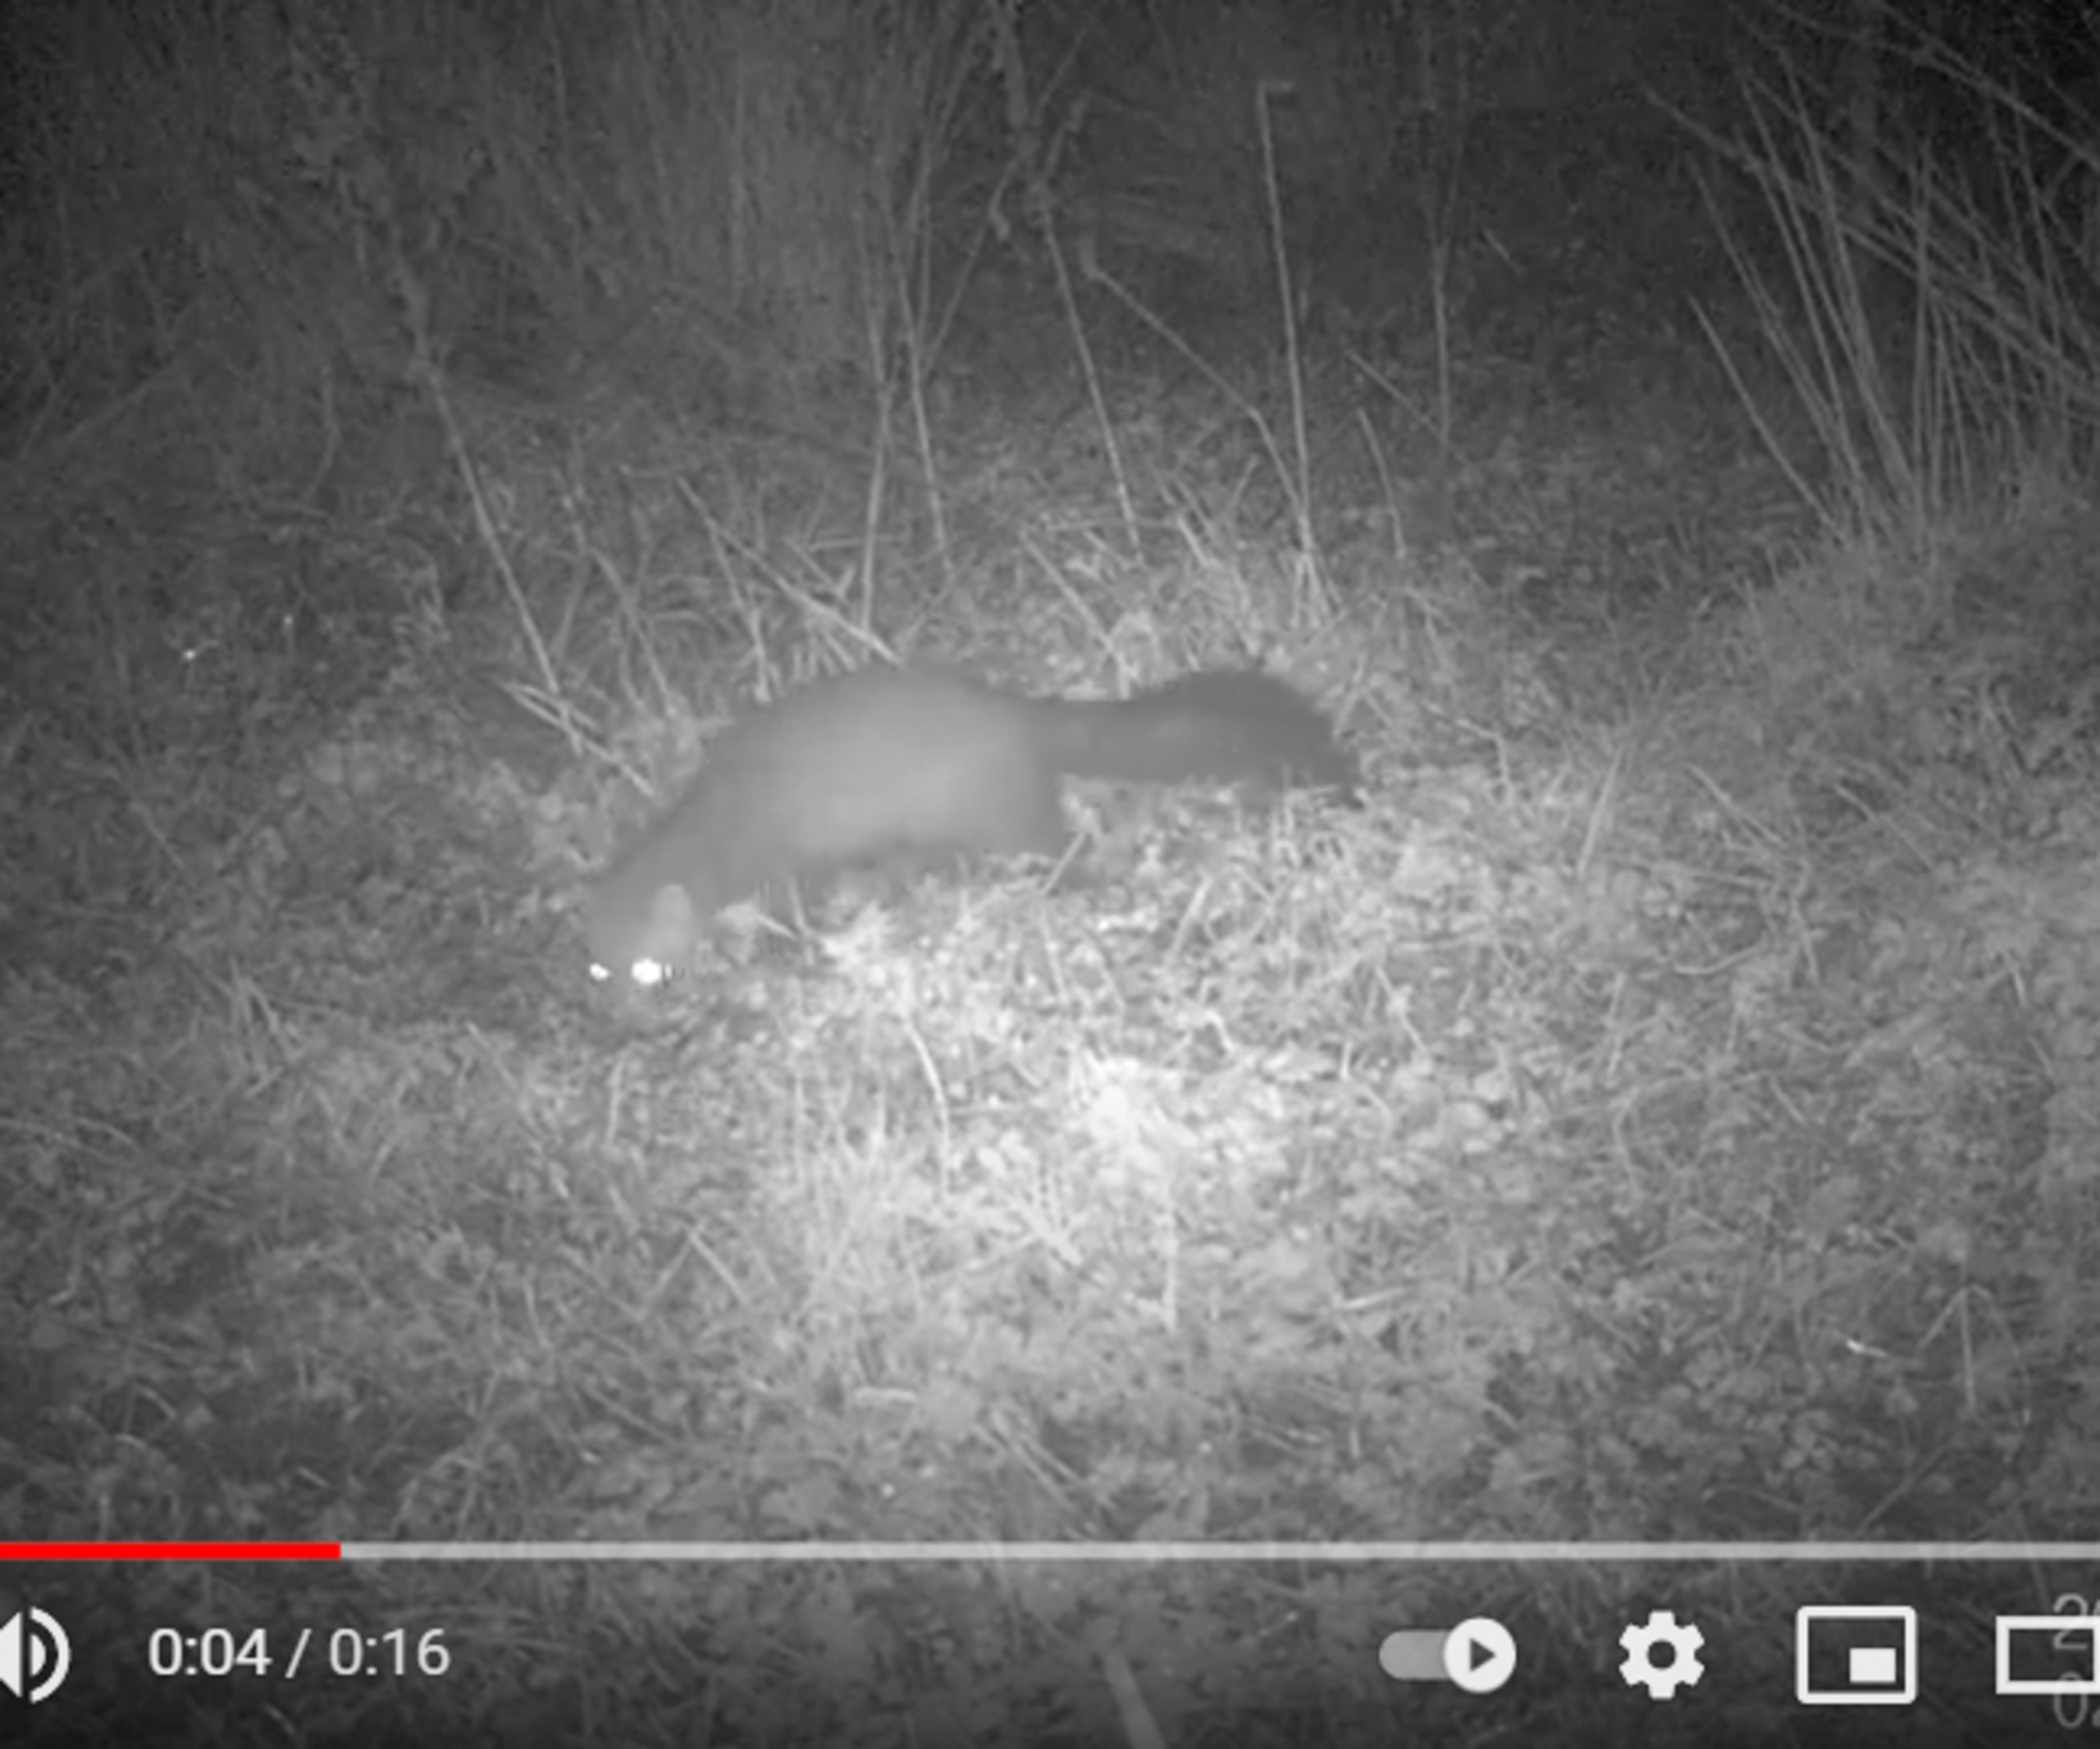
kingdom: Animalia
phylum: Chordata
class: Mammalia
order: Carnivora
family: Mustelidae
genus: Martes
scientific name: Martes foina
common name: Husmår
